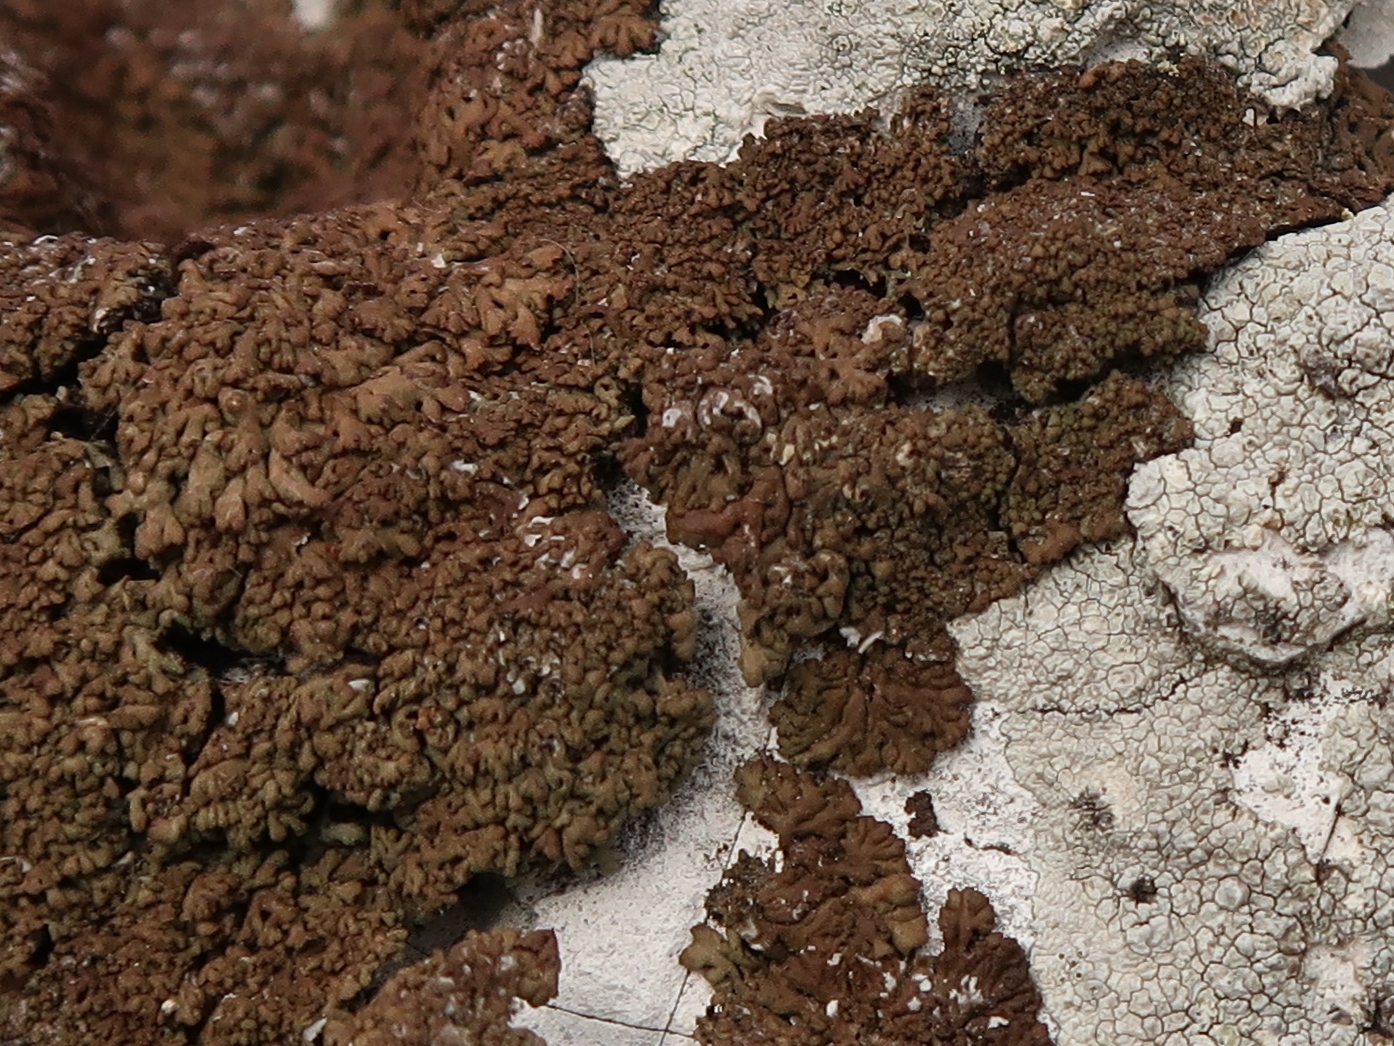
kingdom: Fungi
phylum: Ascomycota
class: Lecanoromycetes
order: Caliciales
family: Physciaceae
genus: Kurokawia
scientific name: Kurokawia runcinata
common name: brun frynselav
